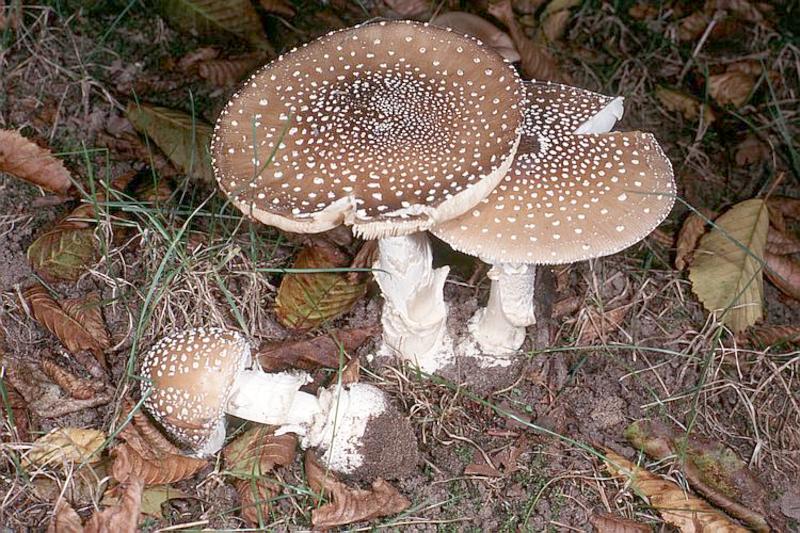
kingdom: Fungi
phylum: Basidiomycota
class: Agaricomycetes
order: Agaricales
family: Amanitaceae
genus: Amanita
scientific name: Amanita pantherina
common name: Panthercap
